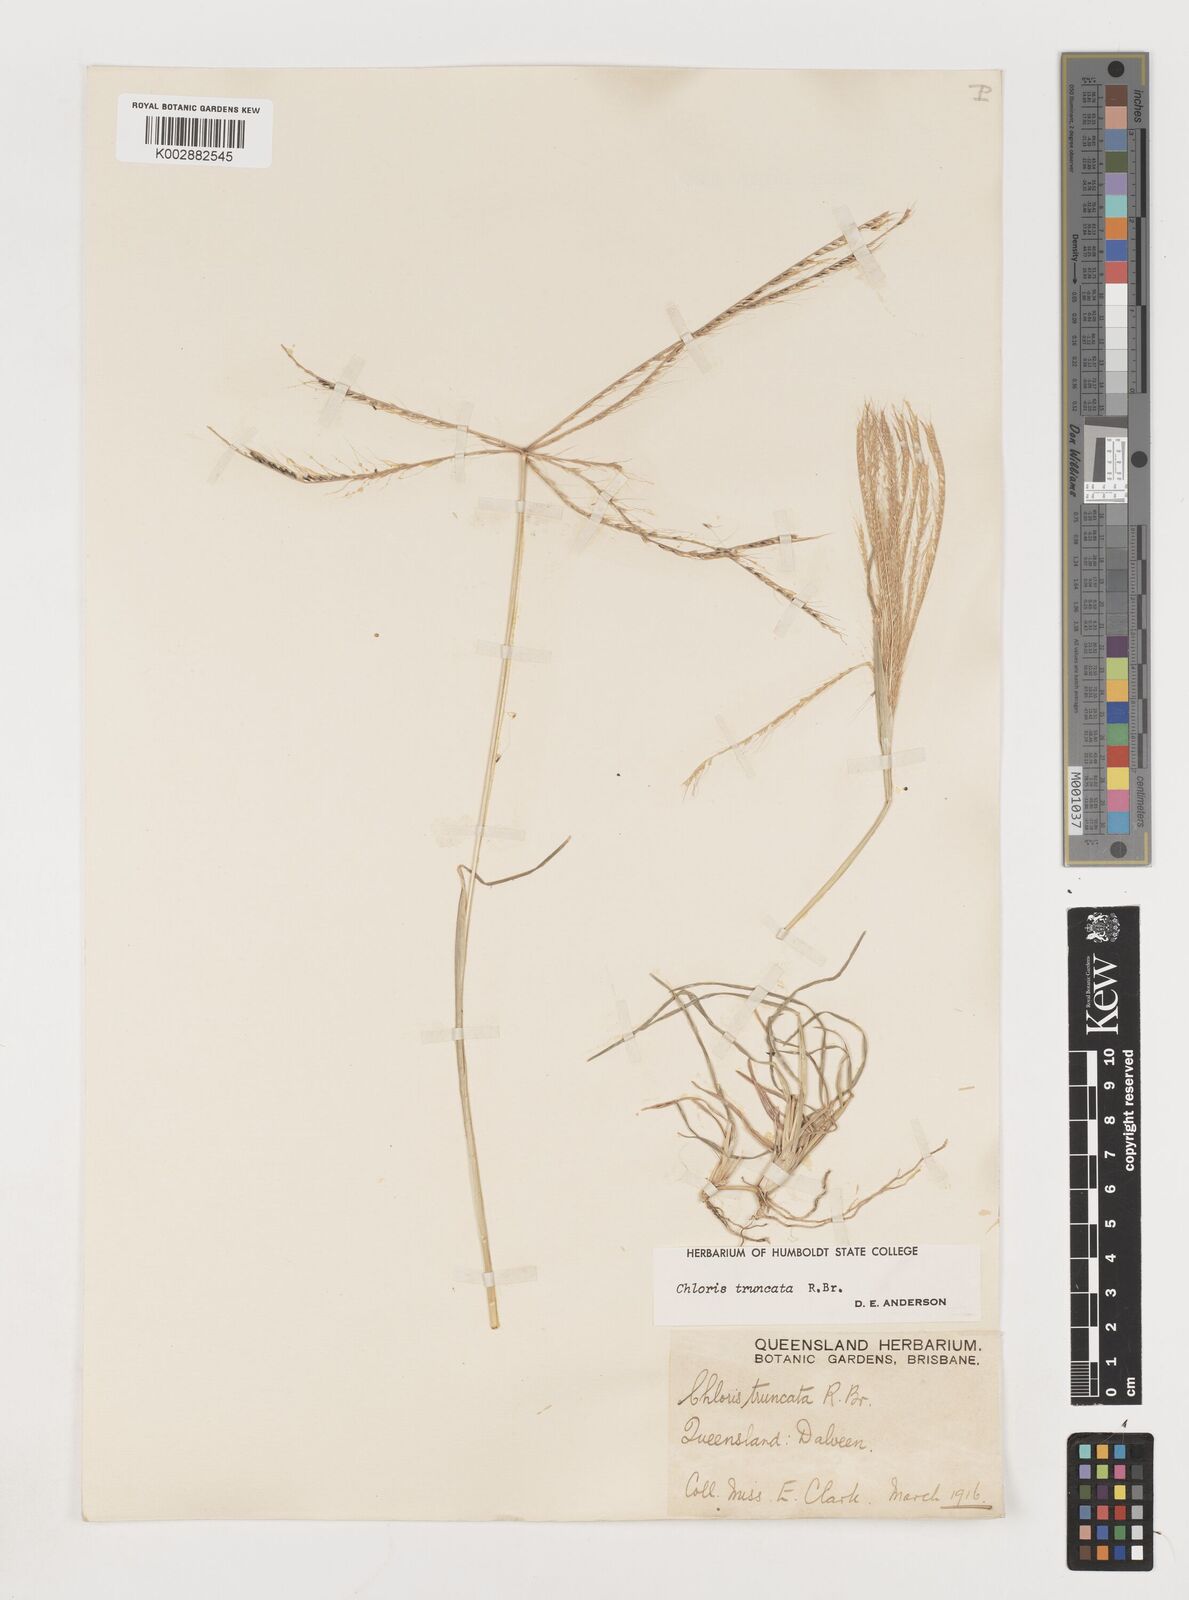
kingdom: Plantae
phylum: Tracheophyta
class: Liliopsida
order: Poales
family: Poaceae
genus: Chloris
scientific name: Chloris truncata
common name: Windmill-grass
